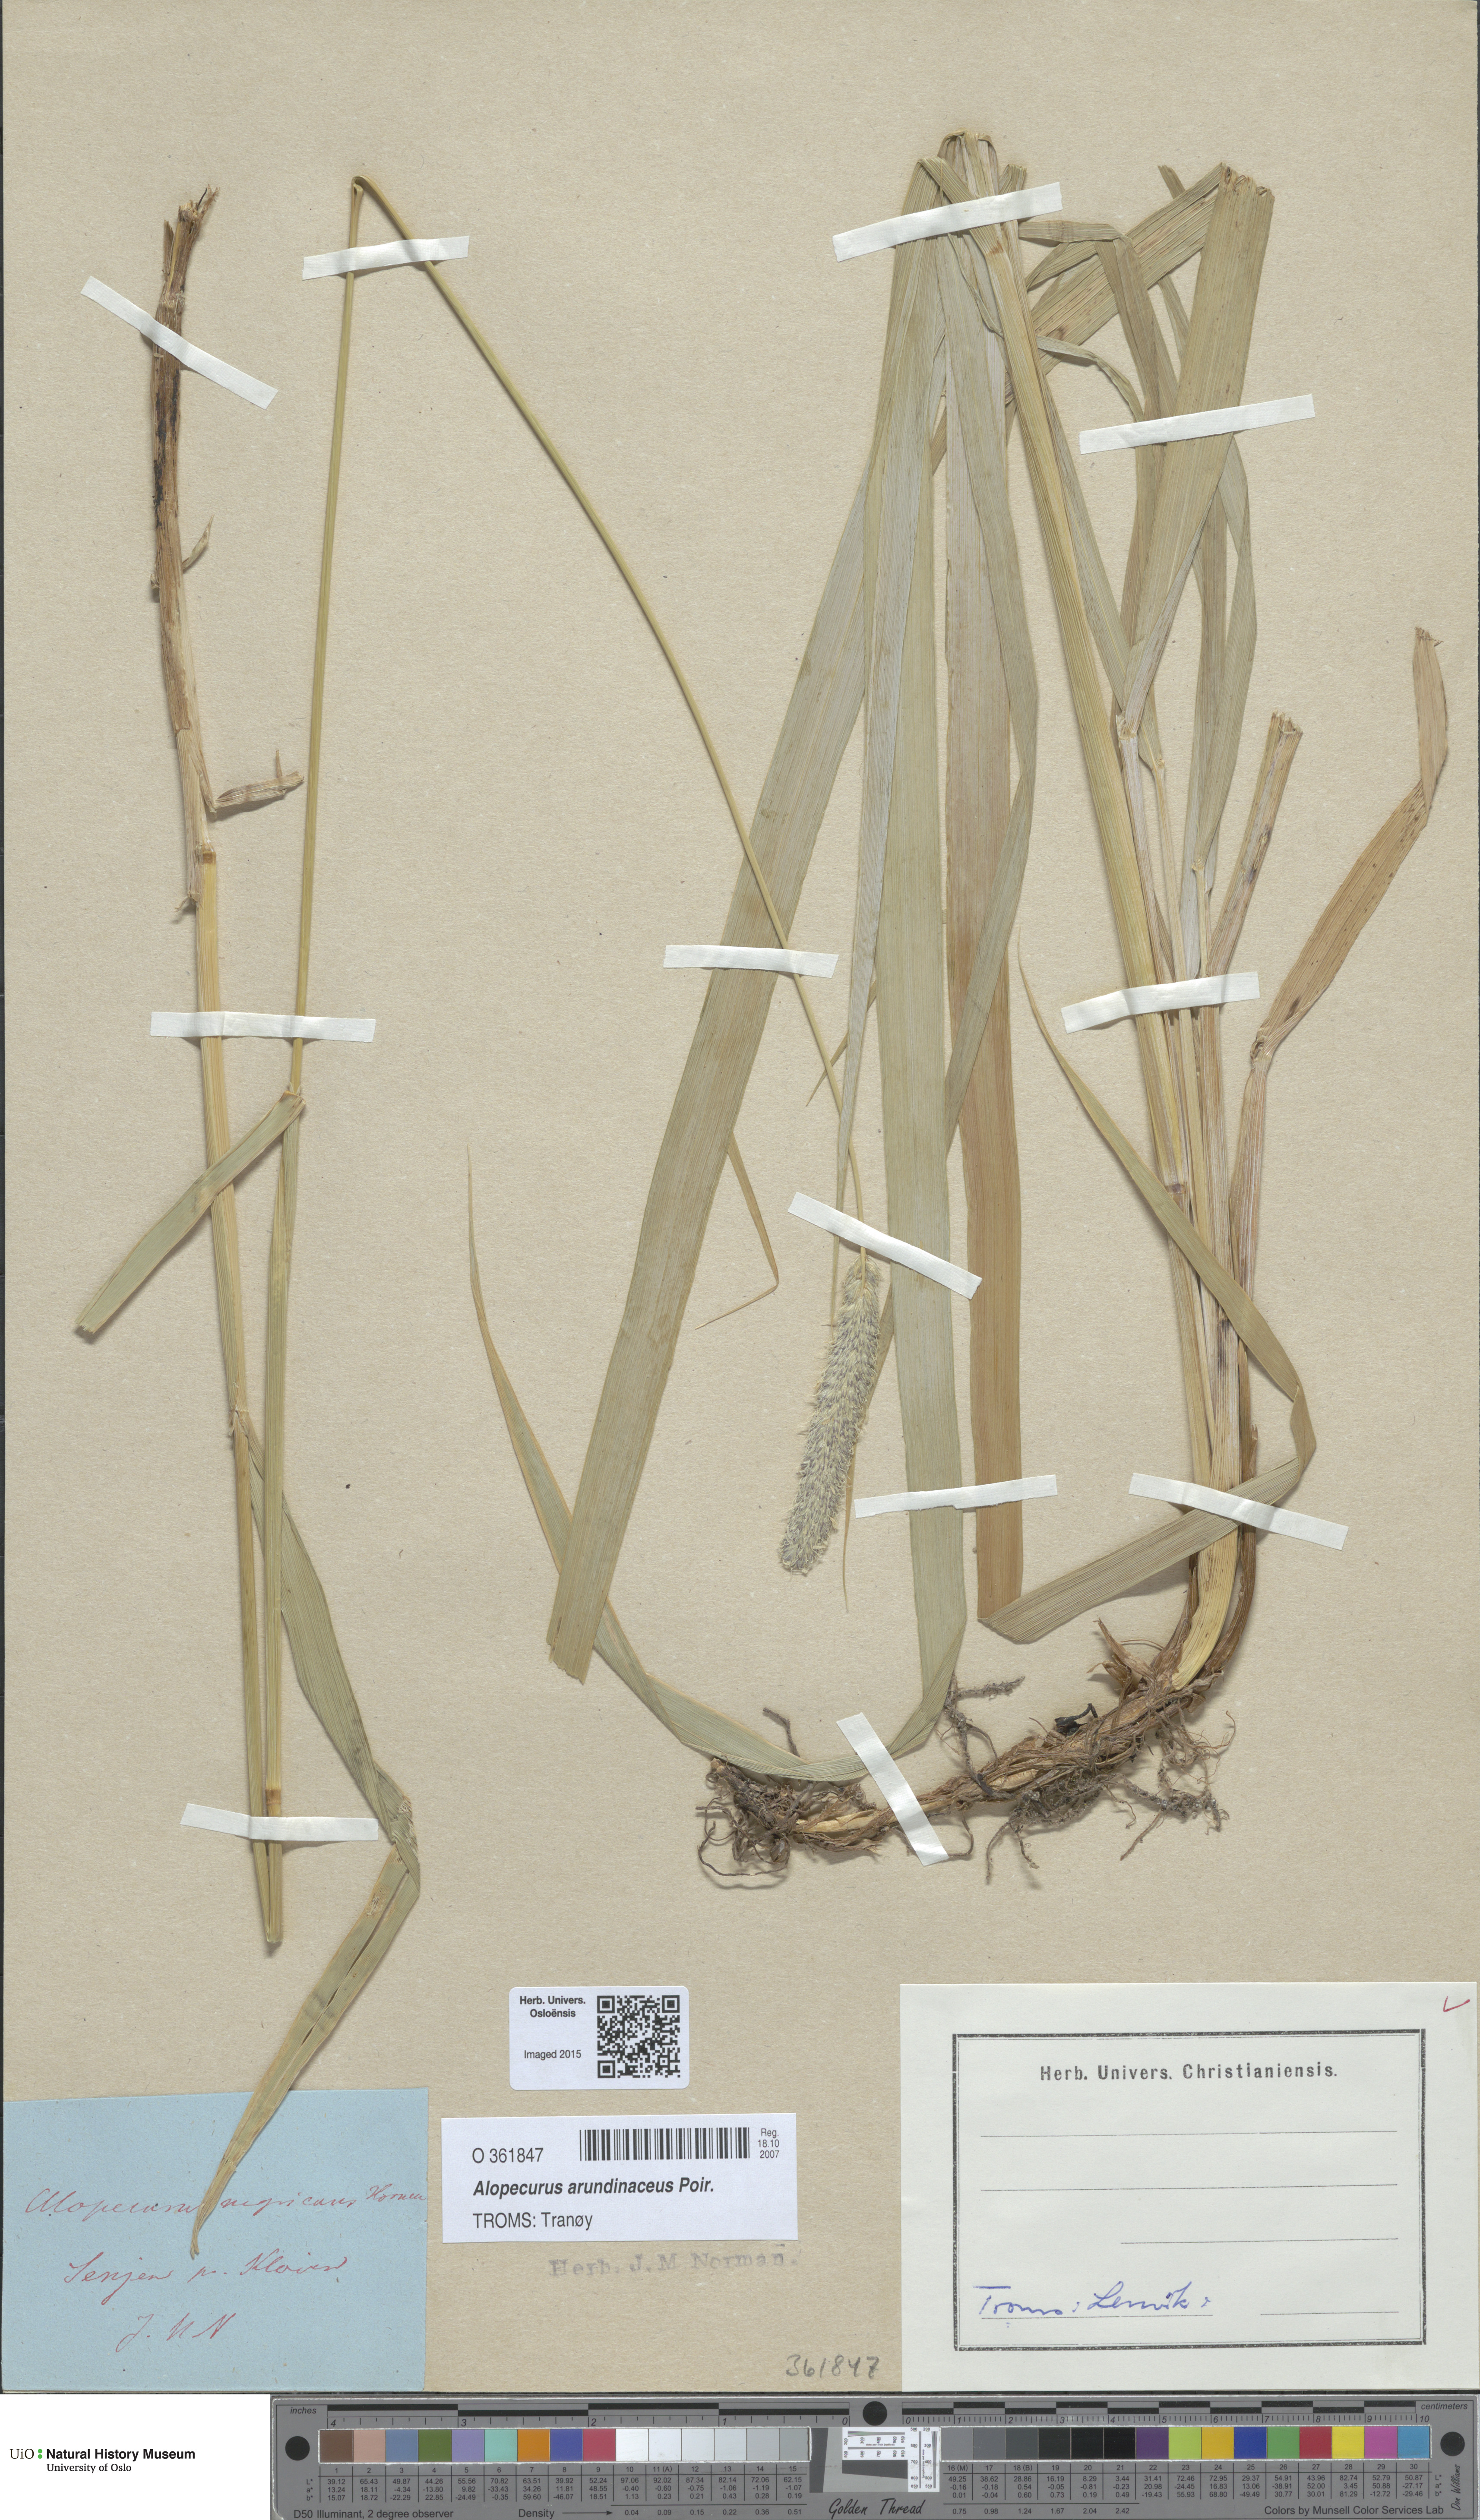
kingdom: Plantae
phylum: Tracheophyta
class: Liliopsida
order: Poales
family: Poaceae
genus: Alopecurus
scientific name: Alopecurus arundinaceus
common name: Creeping meadow foxtail
